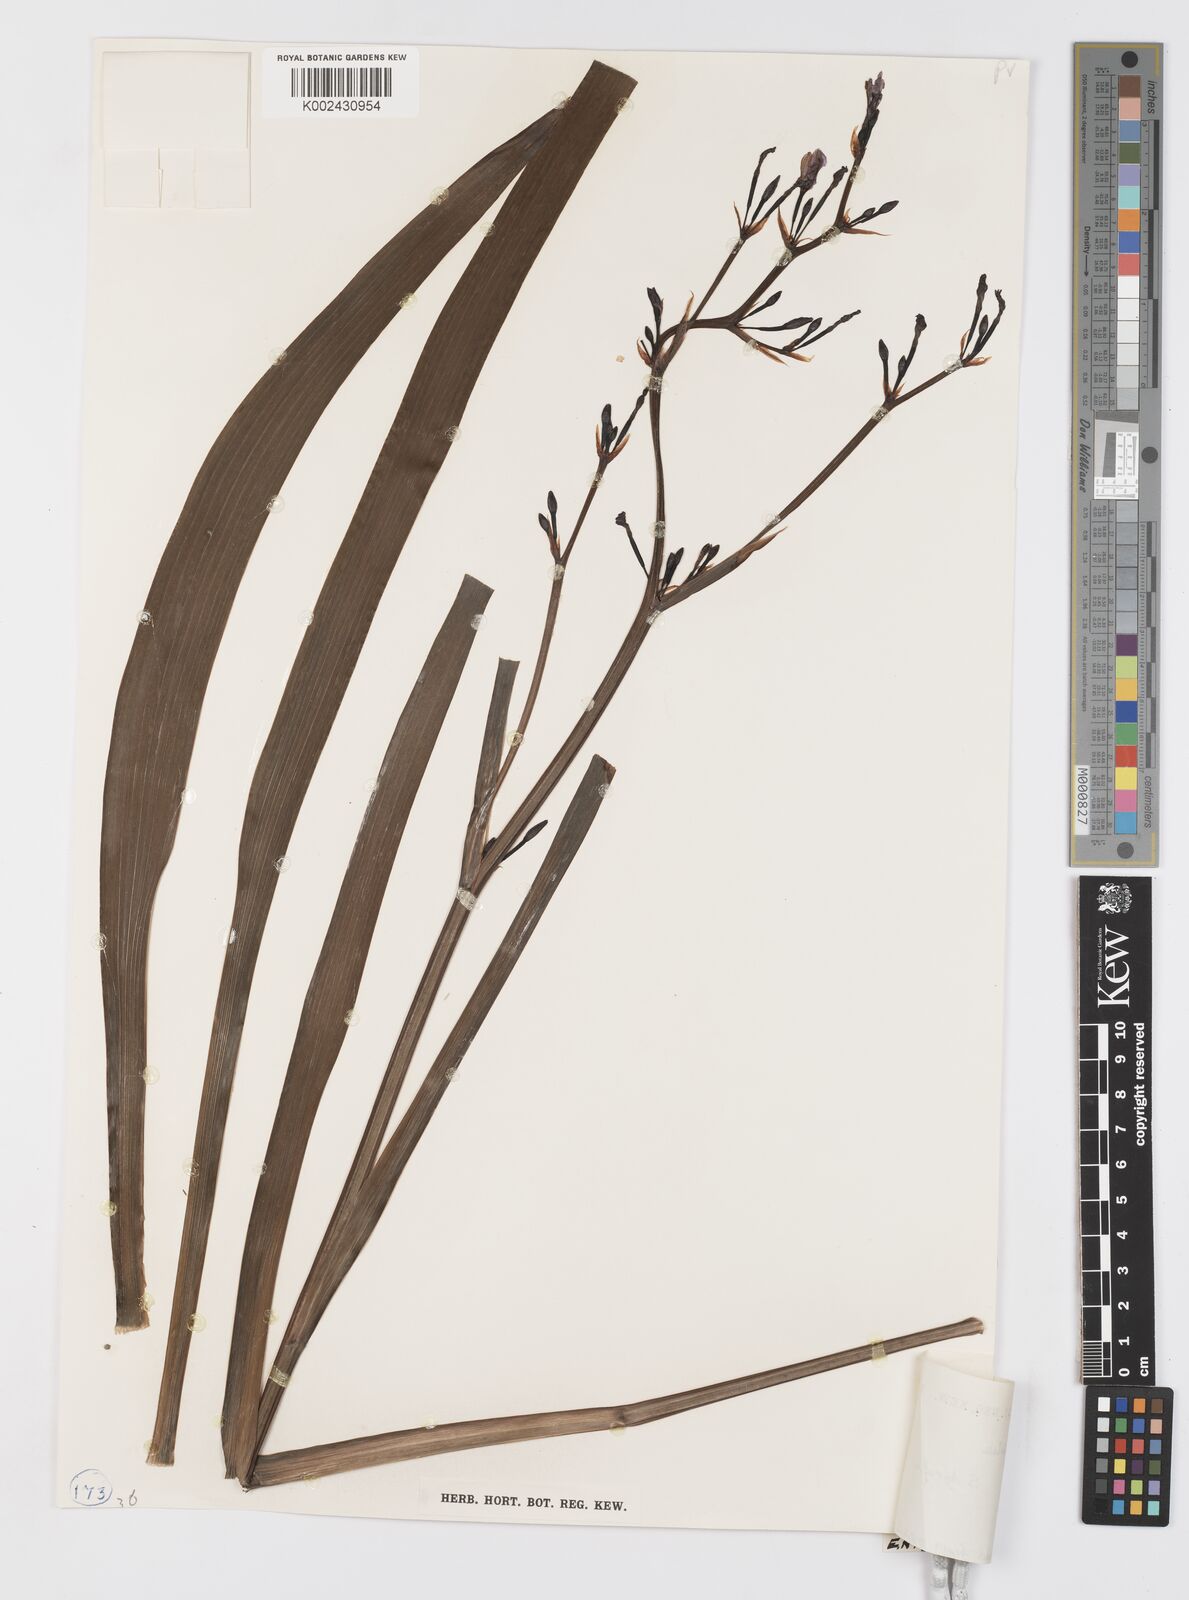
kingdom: Plantae
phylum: Tracheophyta
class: Liliopsida
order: Asparagales
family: Iridaceae
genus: Aristea
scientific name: Aristea ensifolia
